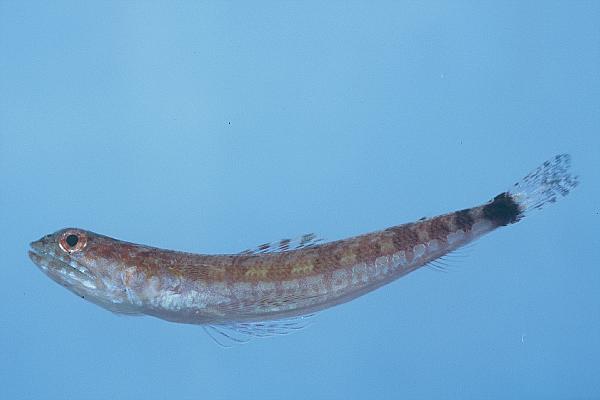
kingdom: Animalia
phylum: Chordata
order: Aulopiformes
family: Synodontidae
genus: Synodus
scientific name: Synodus jaculum
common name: Lighthouse lizardfish
